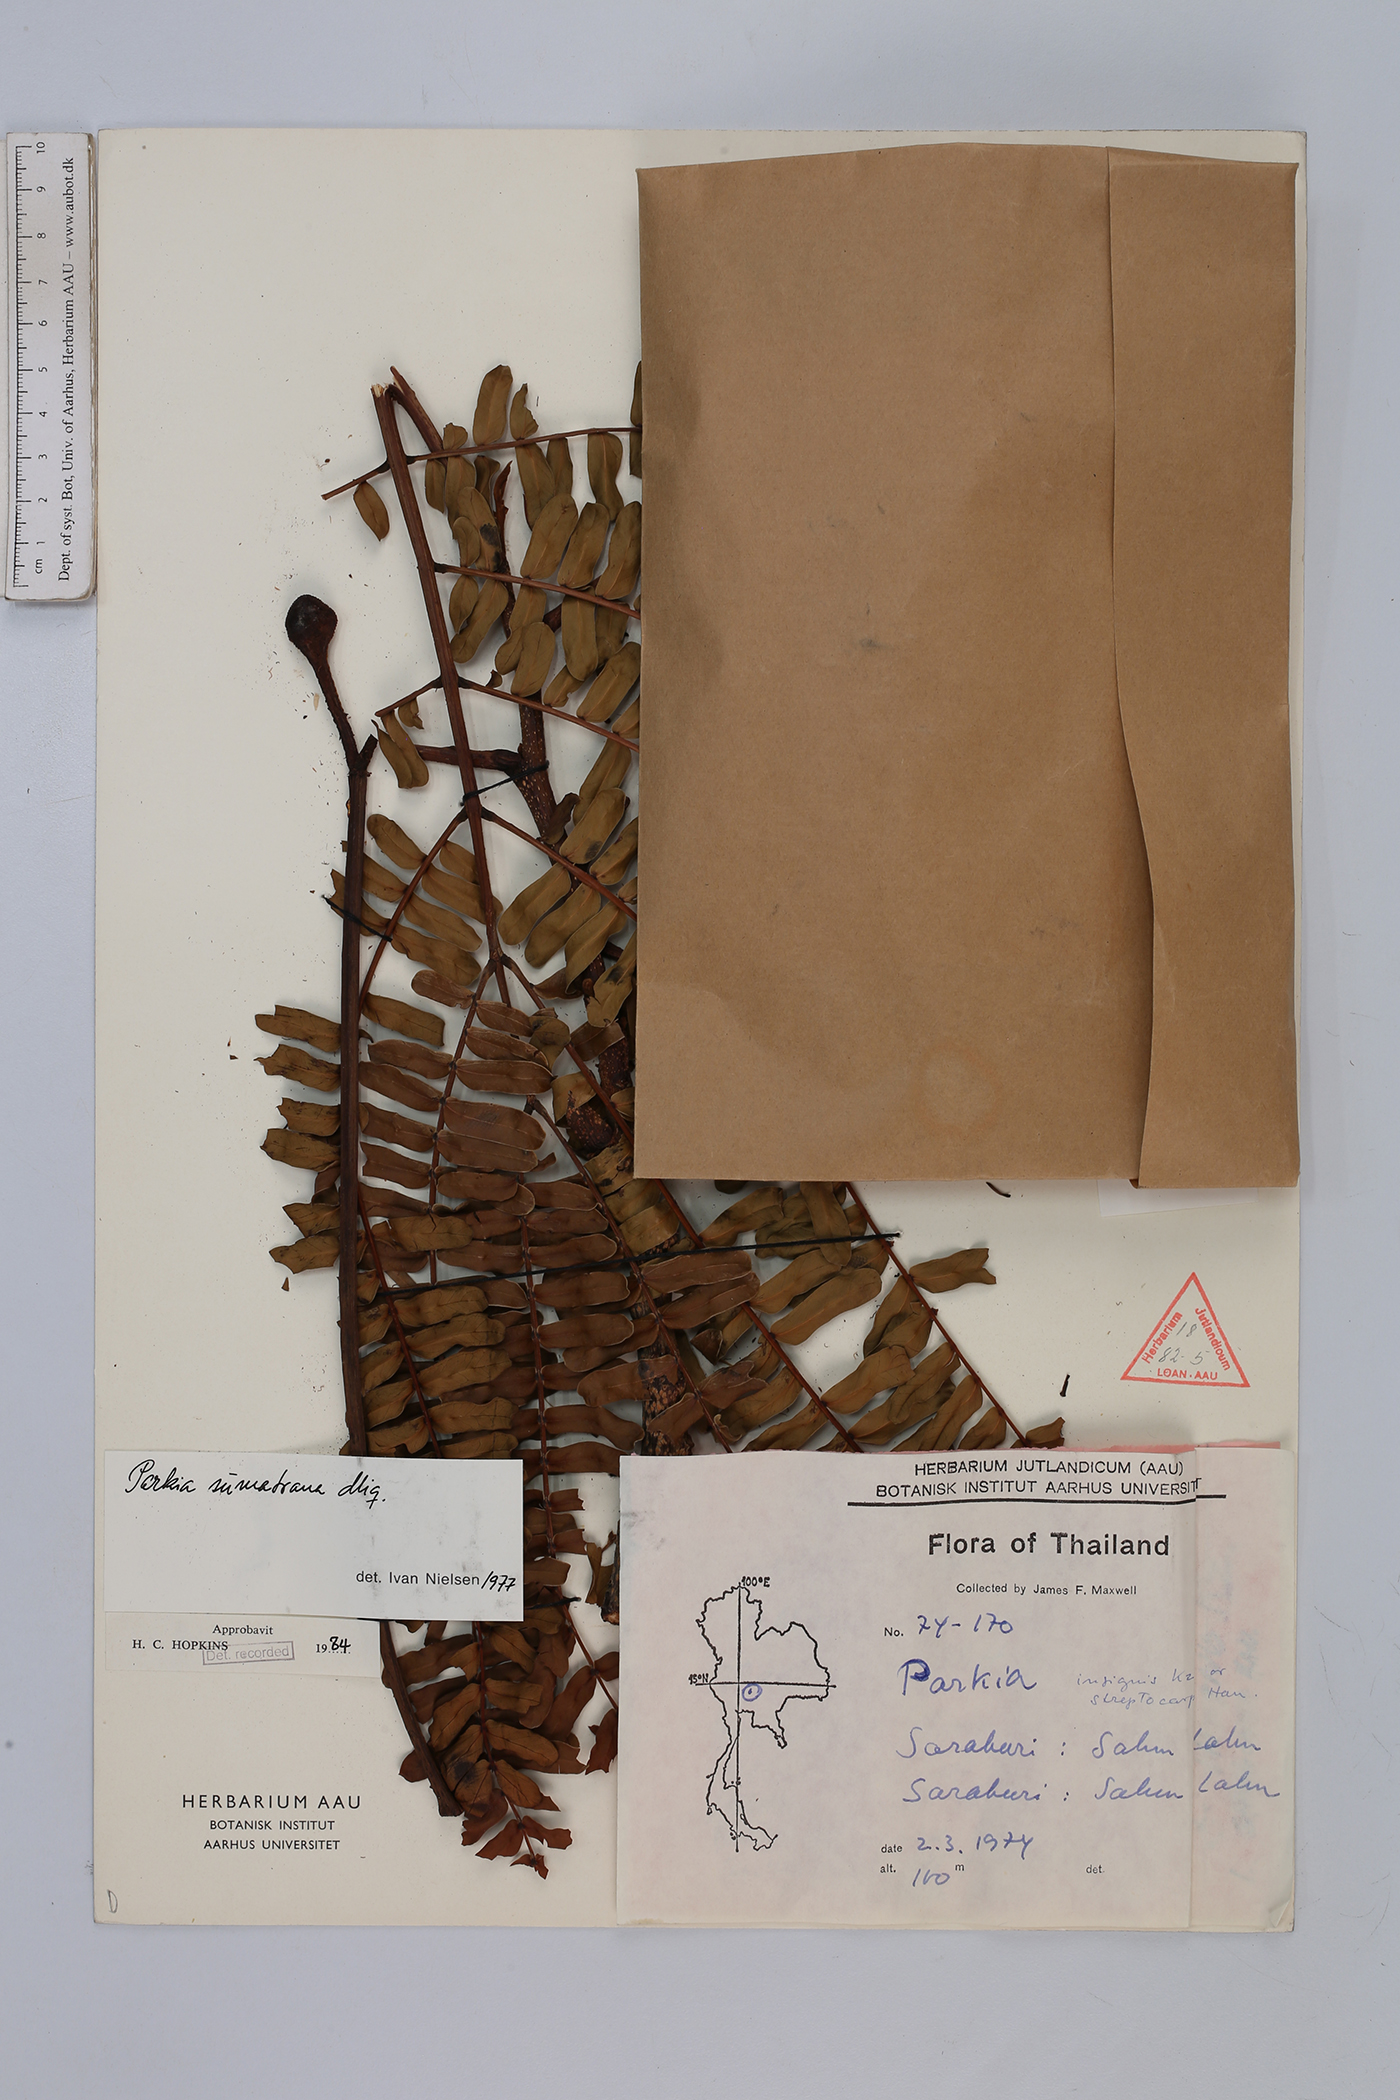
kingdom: Plantae
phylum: Tracheophyta
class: Magnoliopsida
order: Fabales
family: Fabaceae
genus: Parkia
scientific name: Parkia sumatrana
